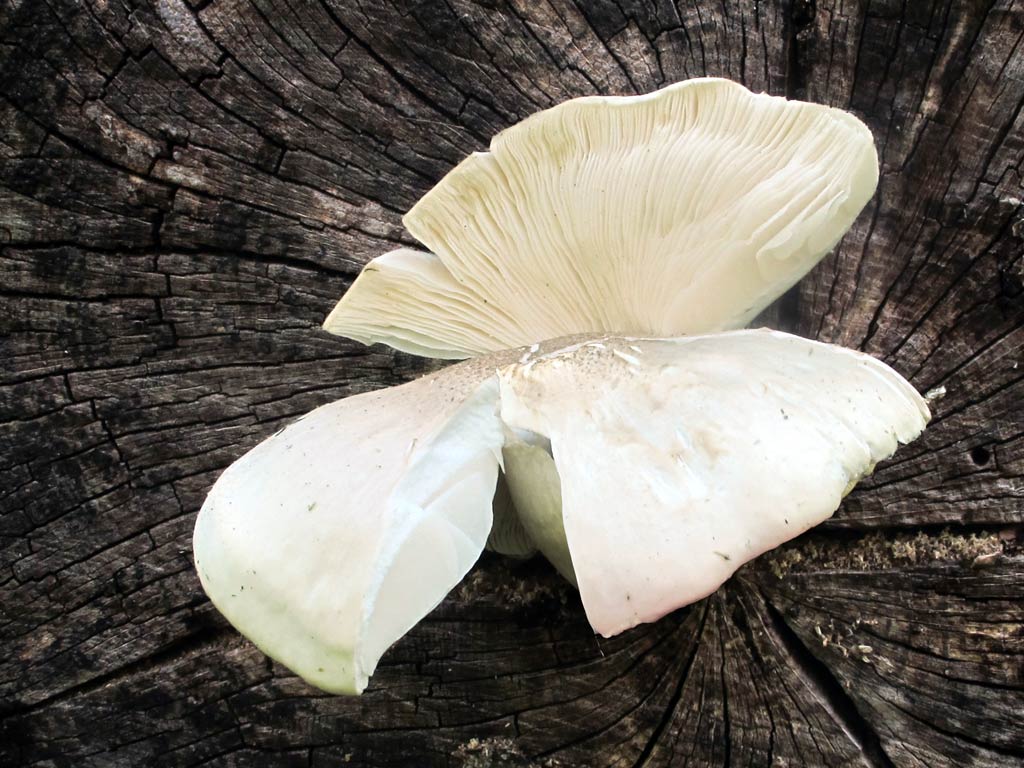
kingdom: Fungi
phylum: Basidiomycota
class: Agaricomycetes
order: Agaricales
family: Lyophyllaceae
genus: Hypsizygus
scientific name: Hypsizygus ulmarius
